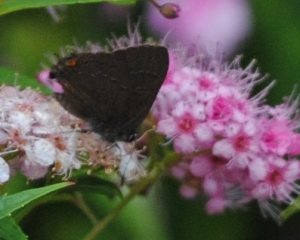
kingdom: Animalia
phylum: Arthropoda
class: Insecta
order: Lepidoptera
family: Lycaenidae
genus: Satyrium
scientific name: Satyrium calanus
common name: Banded Hairstreak
